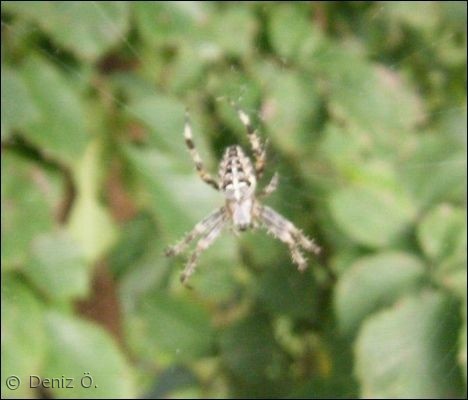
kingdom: Animalia
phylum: Arthropoda
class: Arachnida
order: Araneae
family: Araneidae
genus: Araneus
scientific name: Araneus diadematus
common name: Korsedderkop
